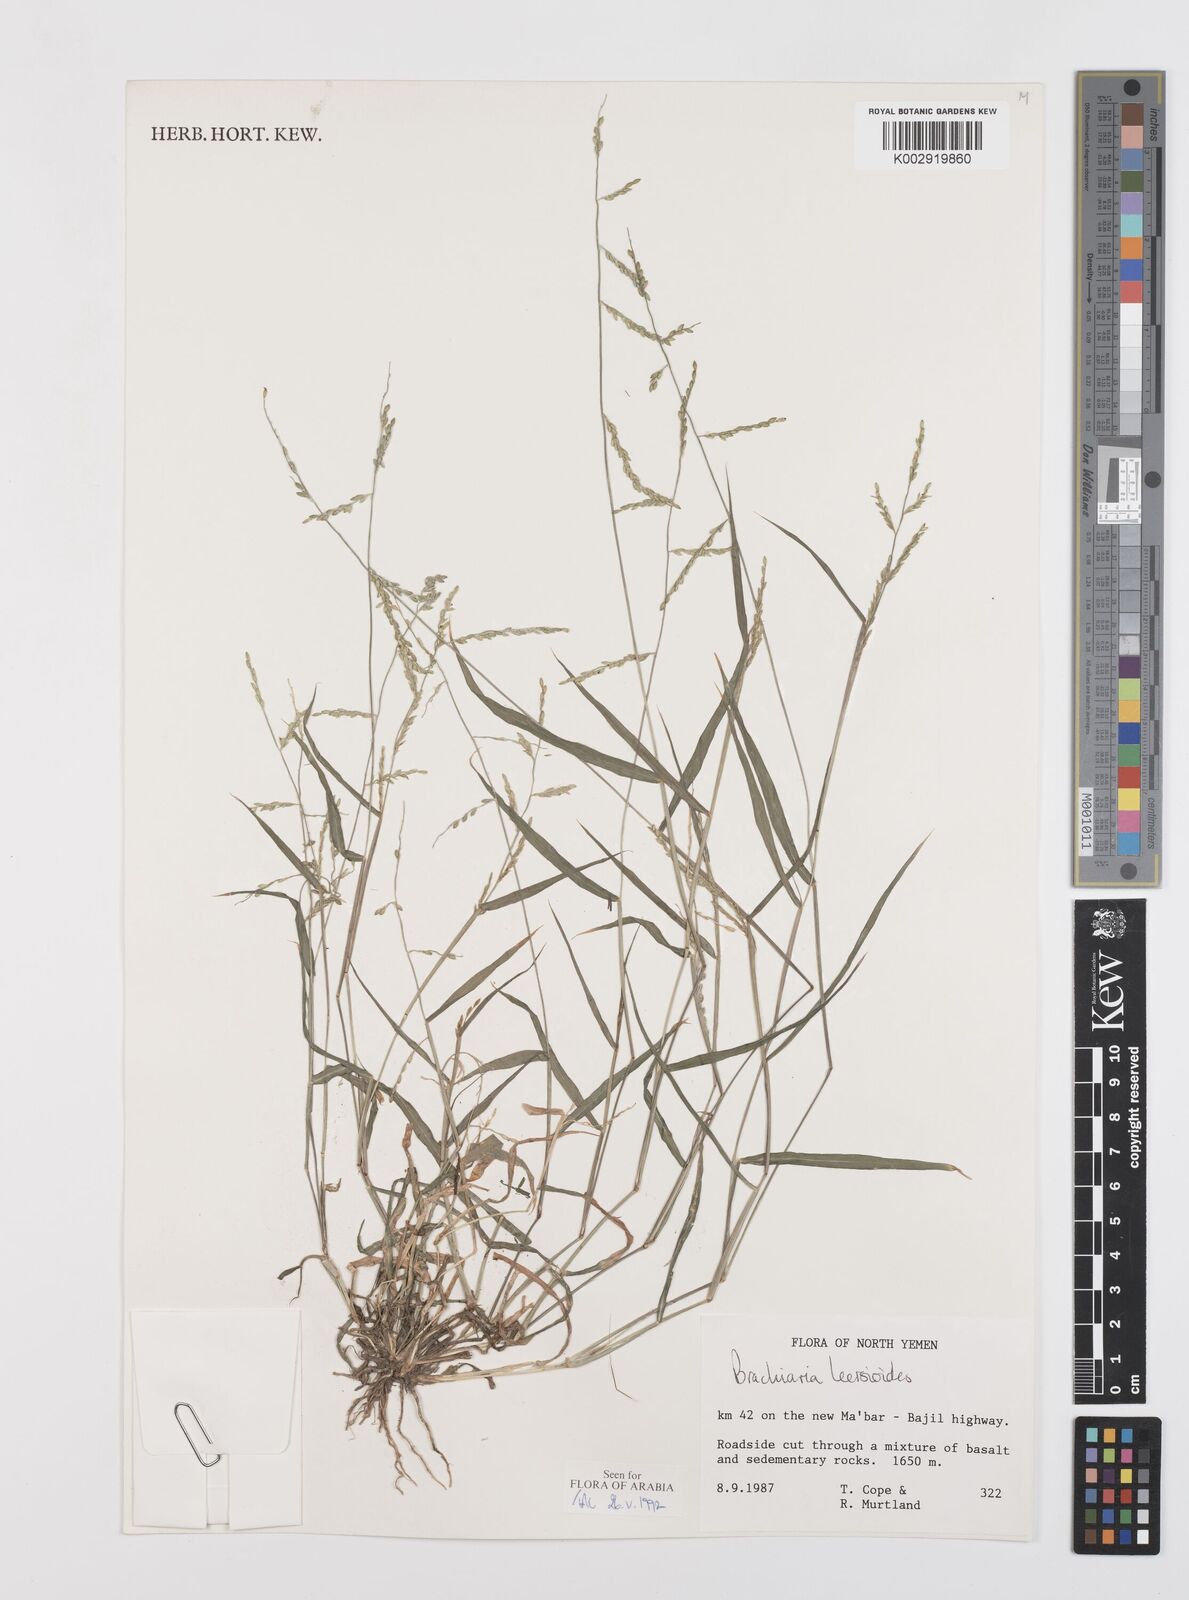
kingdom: Plantae
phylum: Tracheophyta
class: Liliopsida
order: Poales
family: Poaceae
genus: Urochloa
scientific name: Urochloa leersioides
